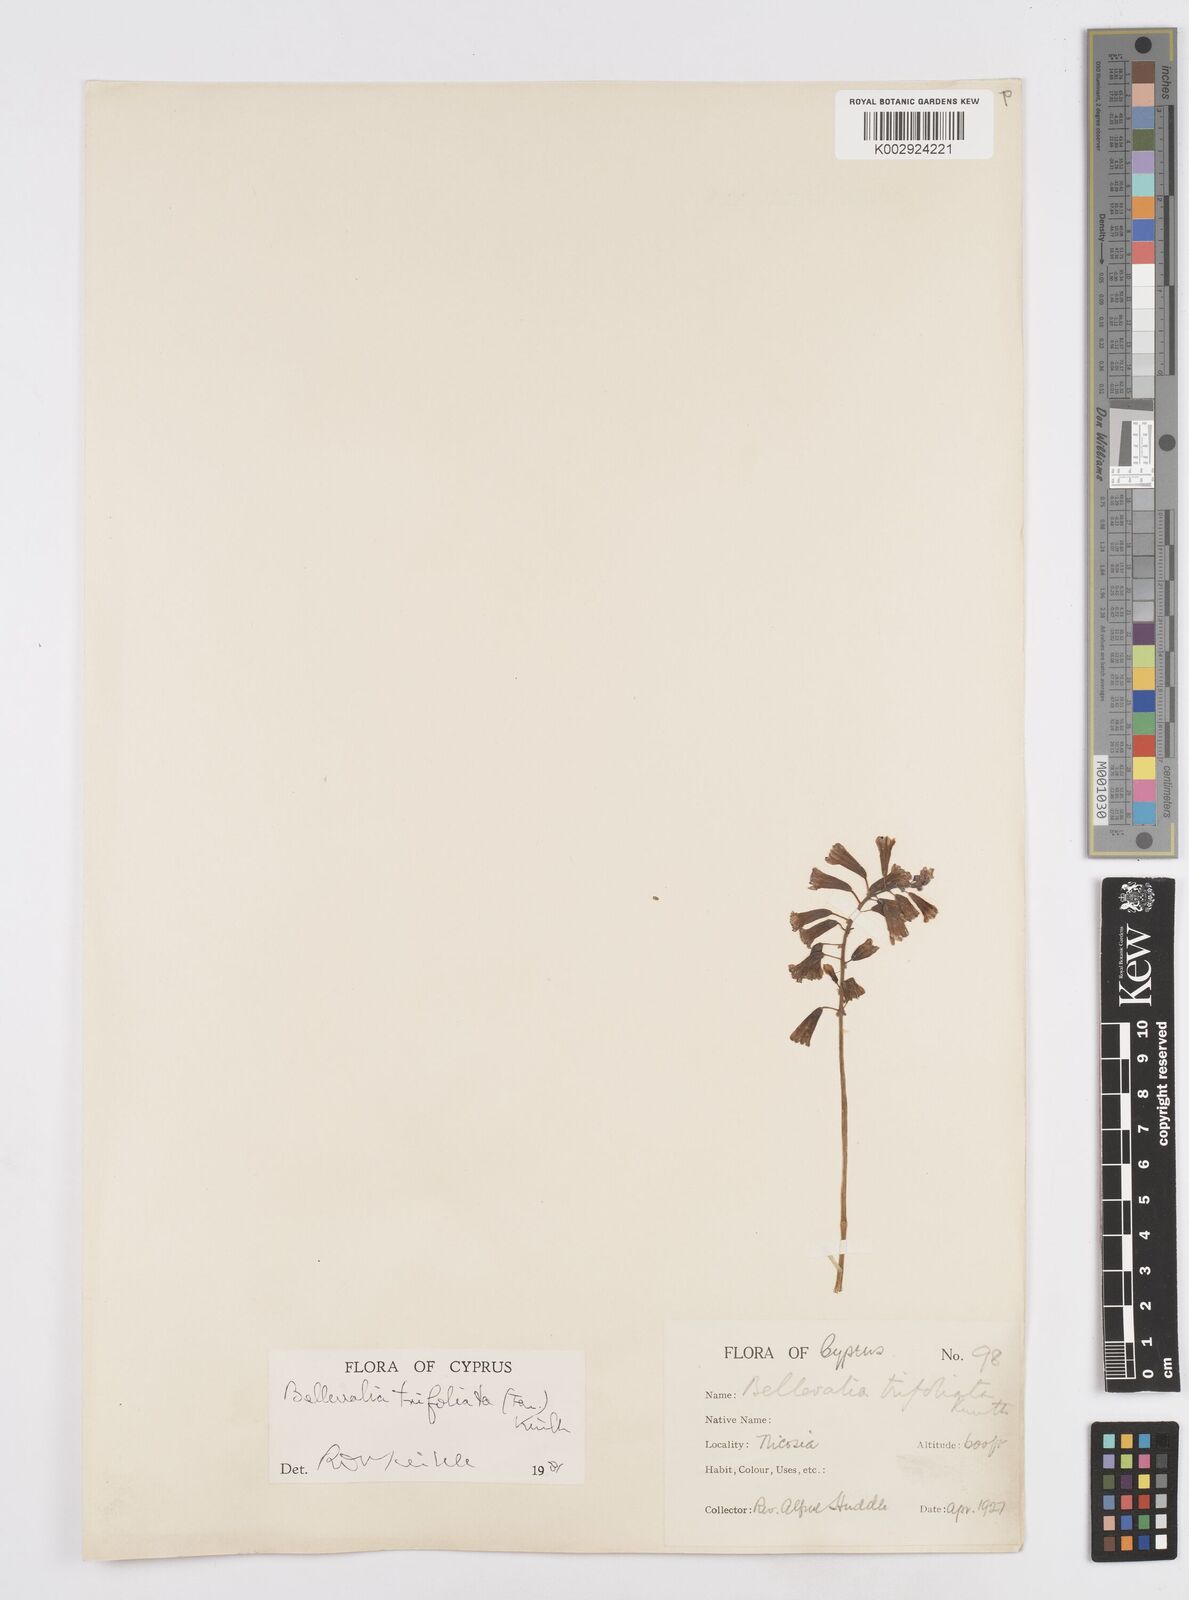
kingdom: Plantae
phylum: Tracheophyta
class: Liliopsida
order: Asparagales
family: Asparagaceae
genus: Bellevalia
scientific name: Bellevalia trifoliata
